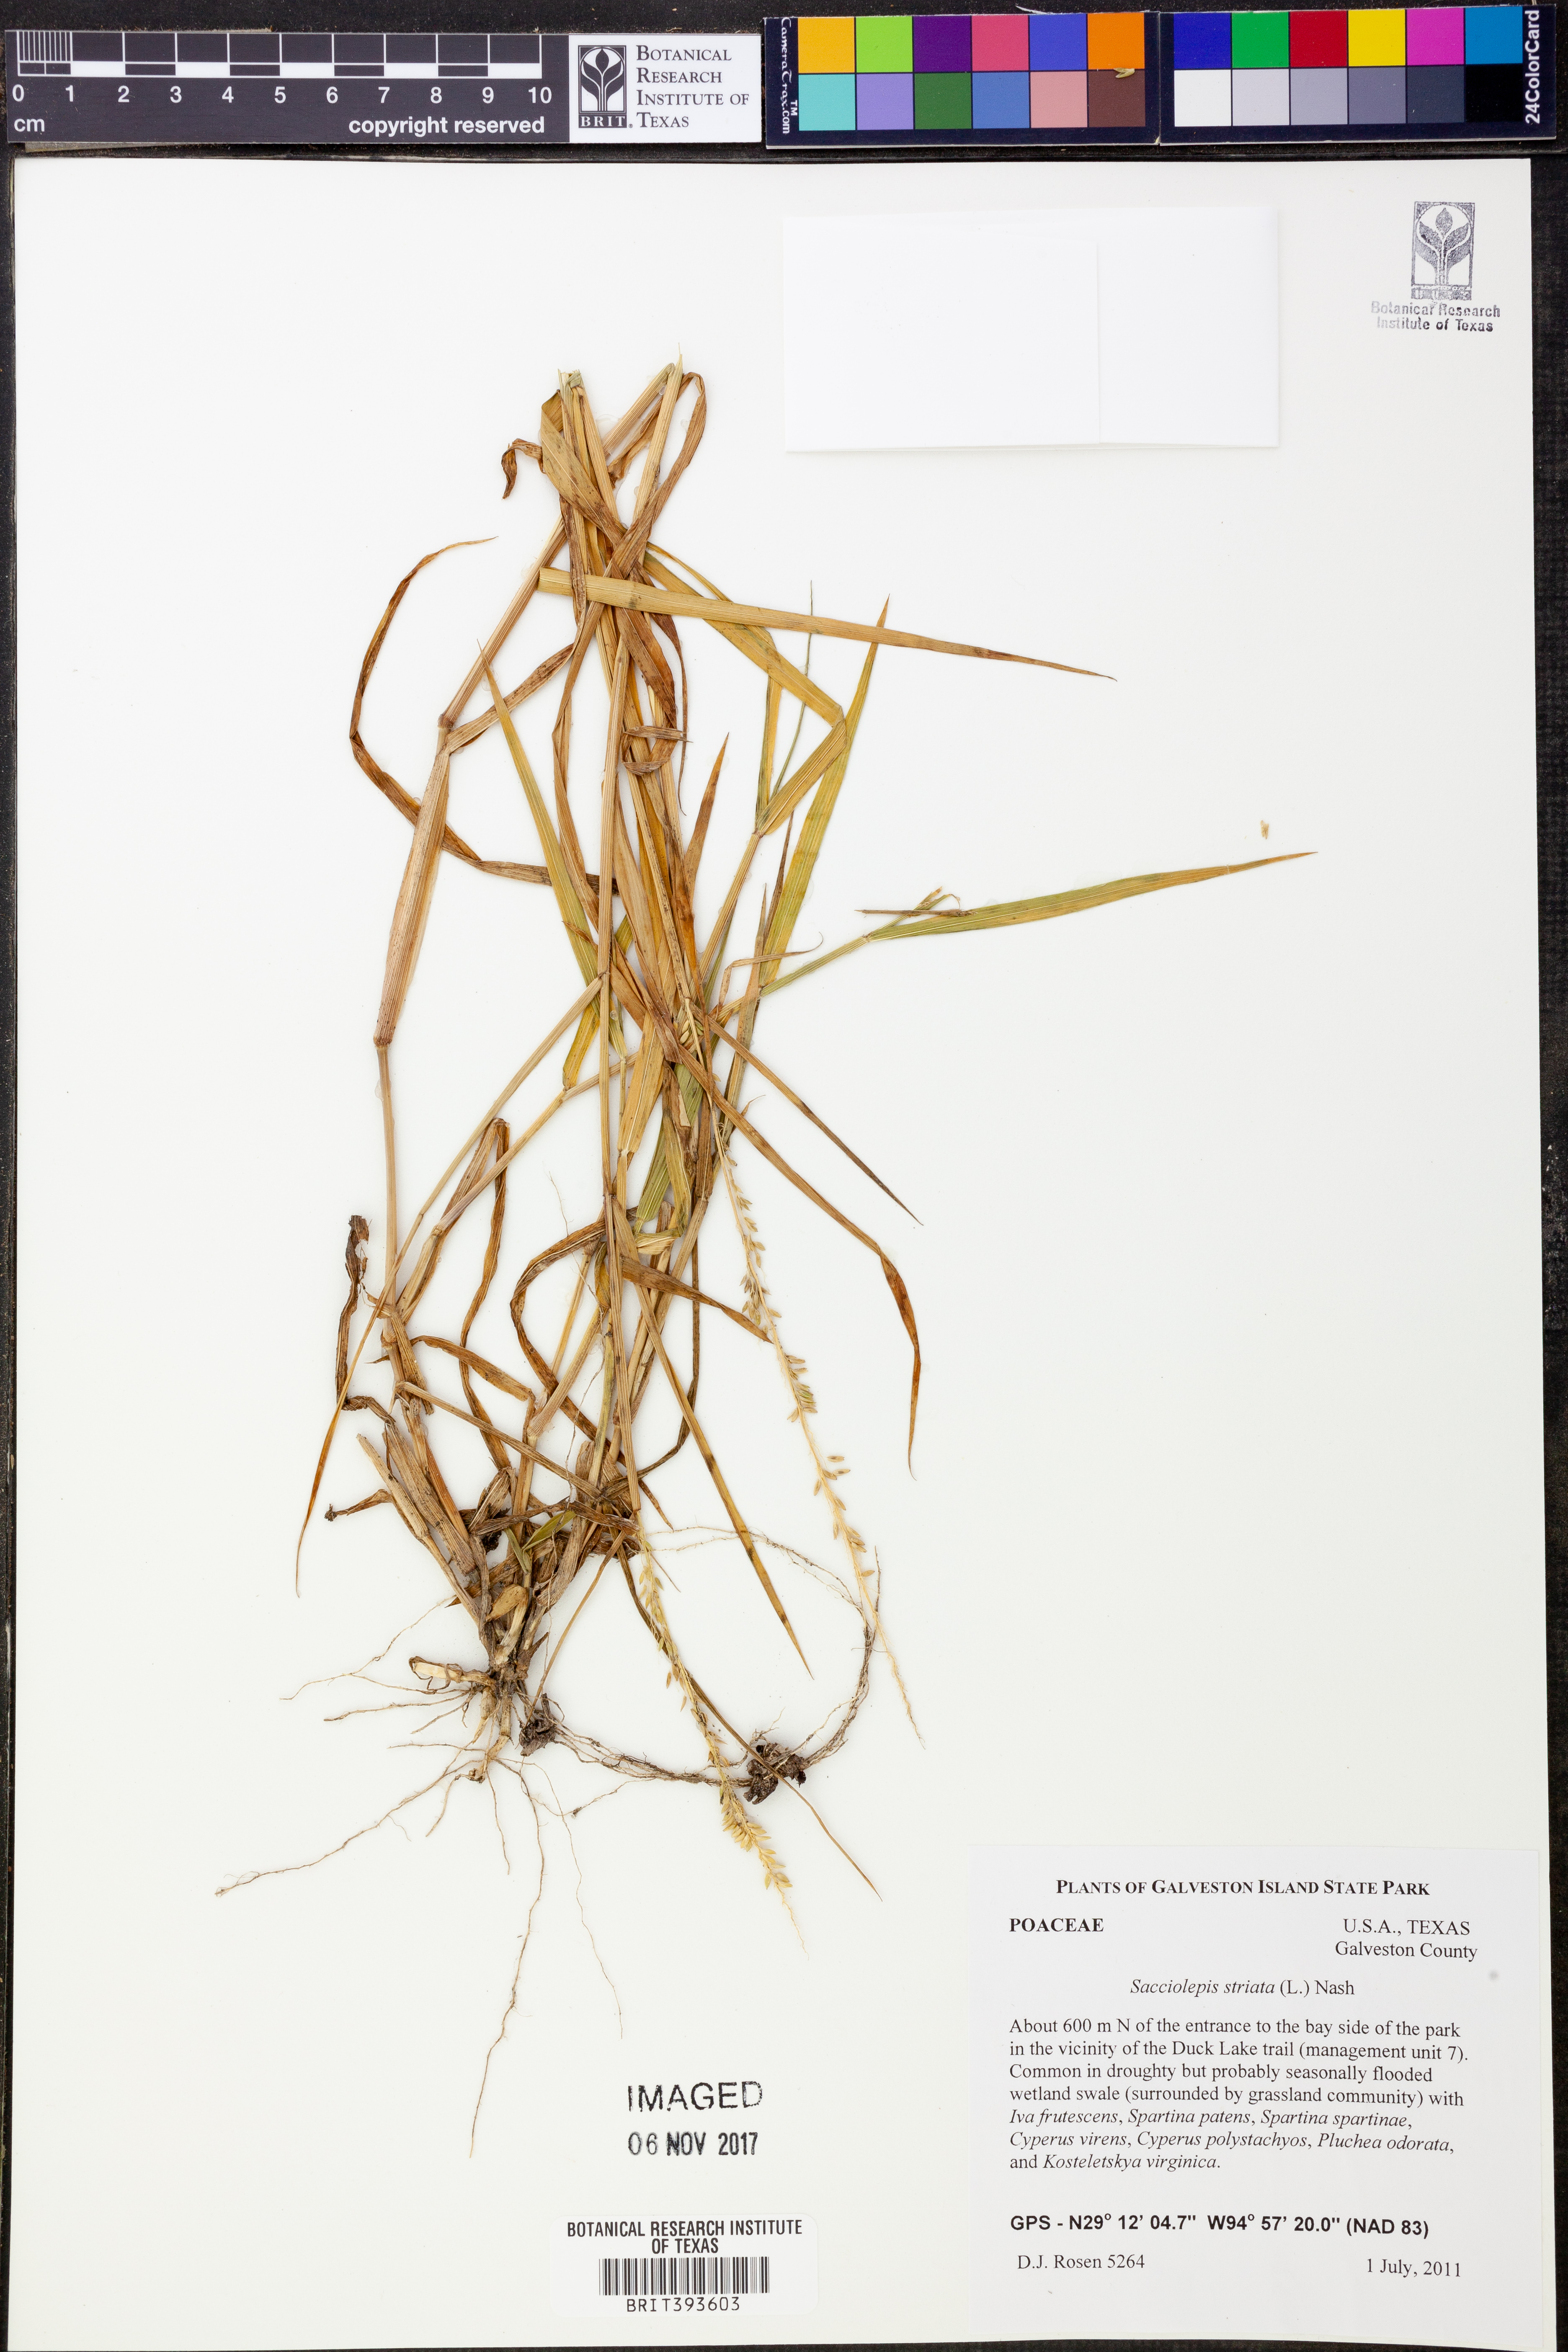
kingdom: Plantae
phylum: Tracheophyta
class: Liliopsida
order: Poales
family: Poaceae
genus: Sacciolepis
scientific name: Sacciolepis striata
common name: American cupscale
